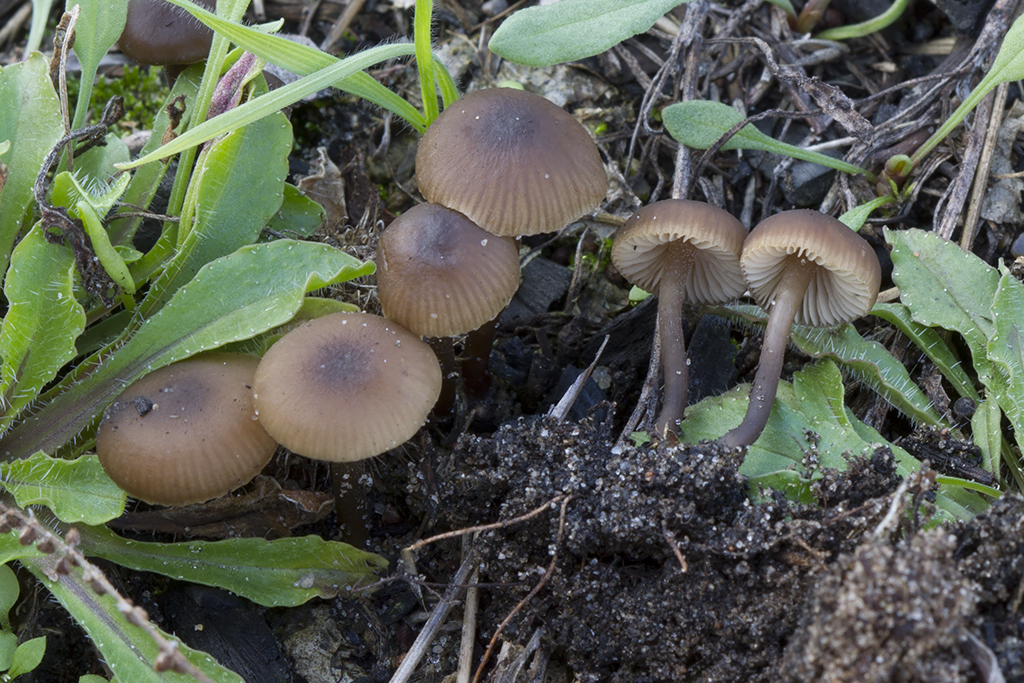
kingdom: Fungi
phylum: Basidiomycota
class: Agaricomycetes
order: Agaricales
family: Lyophyllaceae
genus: Tephrocybe
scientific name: Tephrocybe anthracophila
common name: svedje-gråblad
